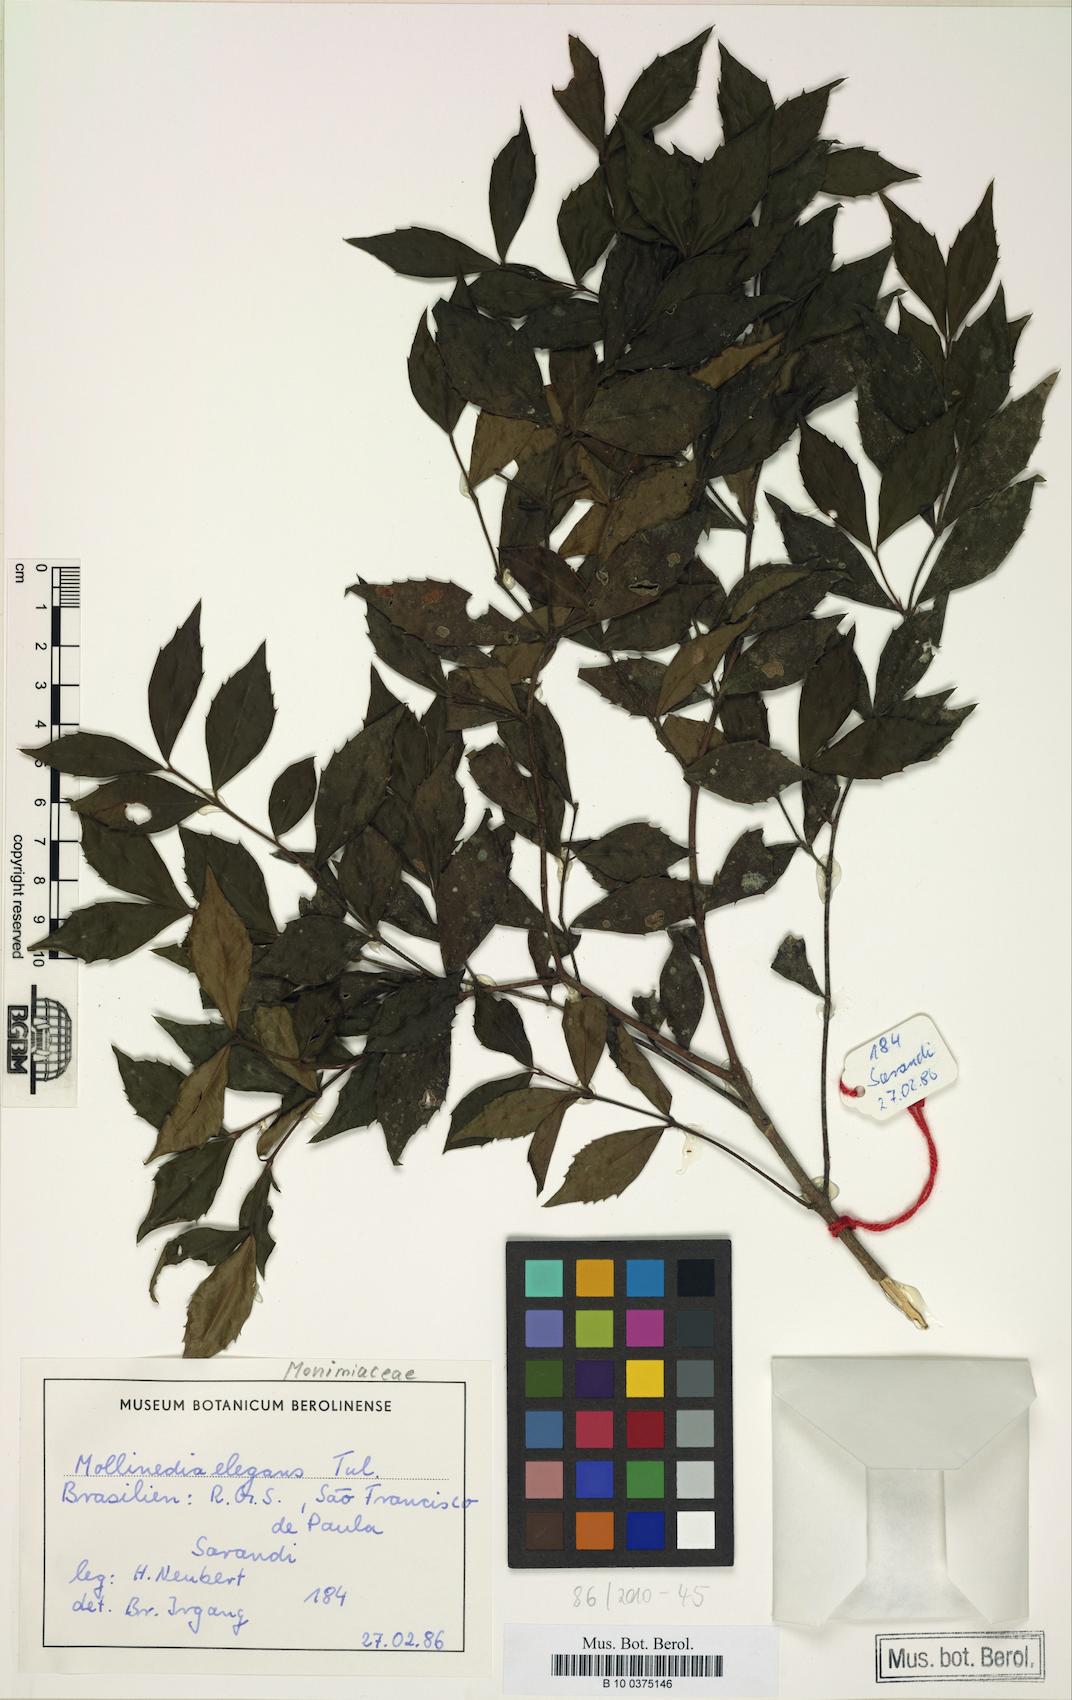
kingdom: Plantae
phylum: Tracheophyta
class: Magnoliopsida
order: Laurales
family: Monimiaceae
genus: Mollinedia
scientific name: Mollinedia elegans
